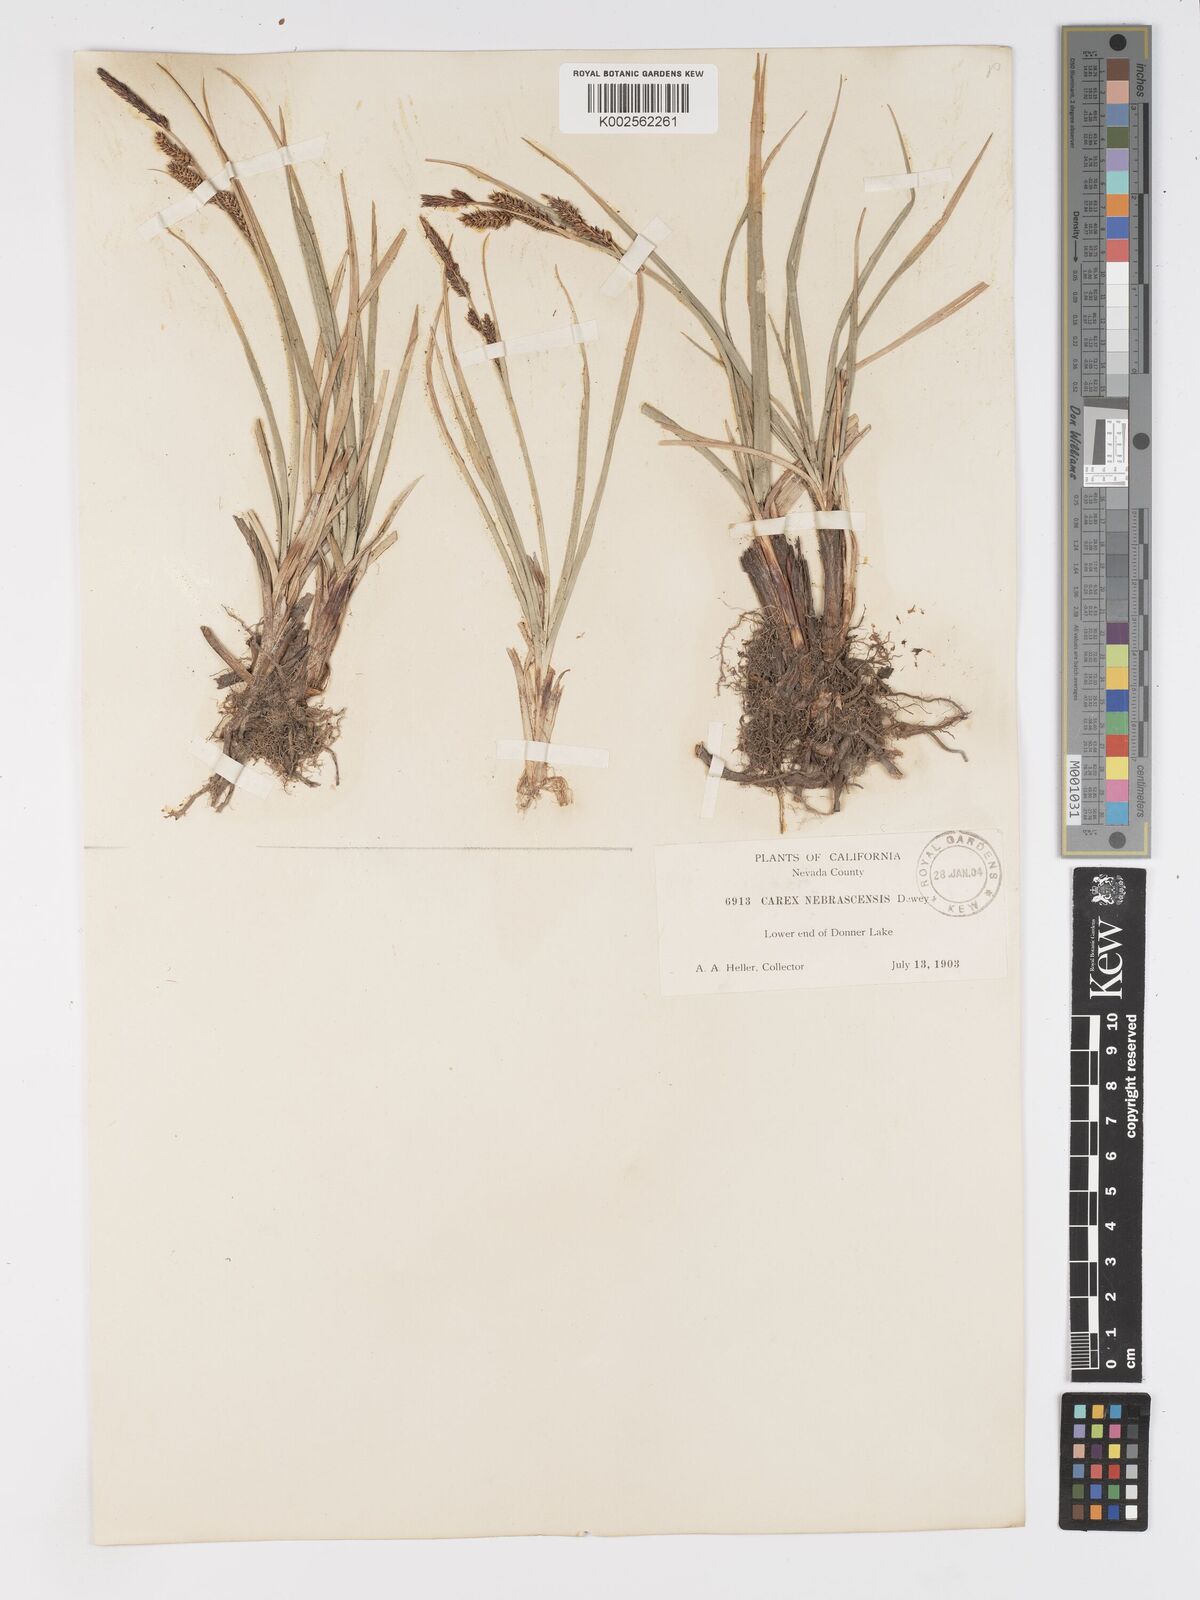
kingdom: Plantae
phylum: Tracheophyta
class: Liliopsida
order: Poales
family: Cyperaceae
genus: Carex
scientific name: Carex nebrascensis
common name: Nebraska sedge
